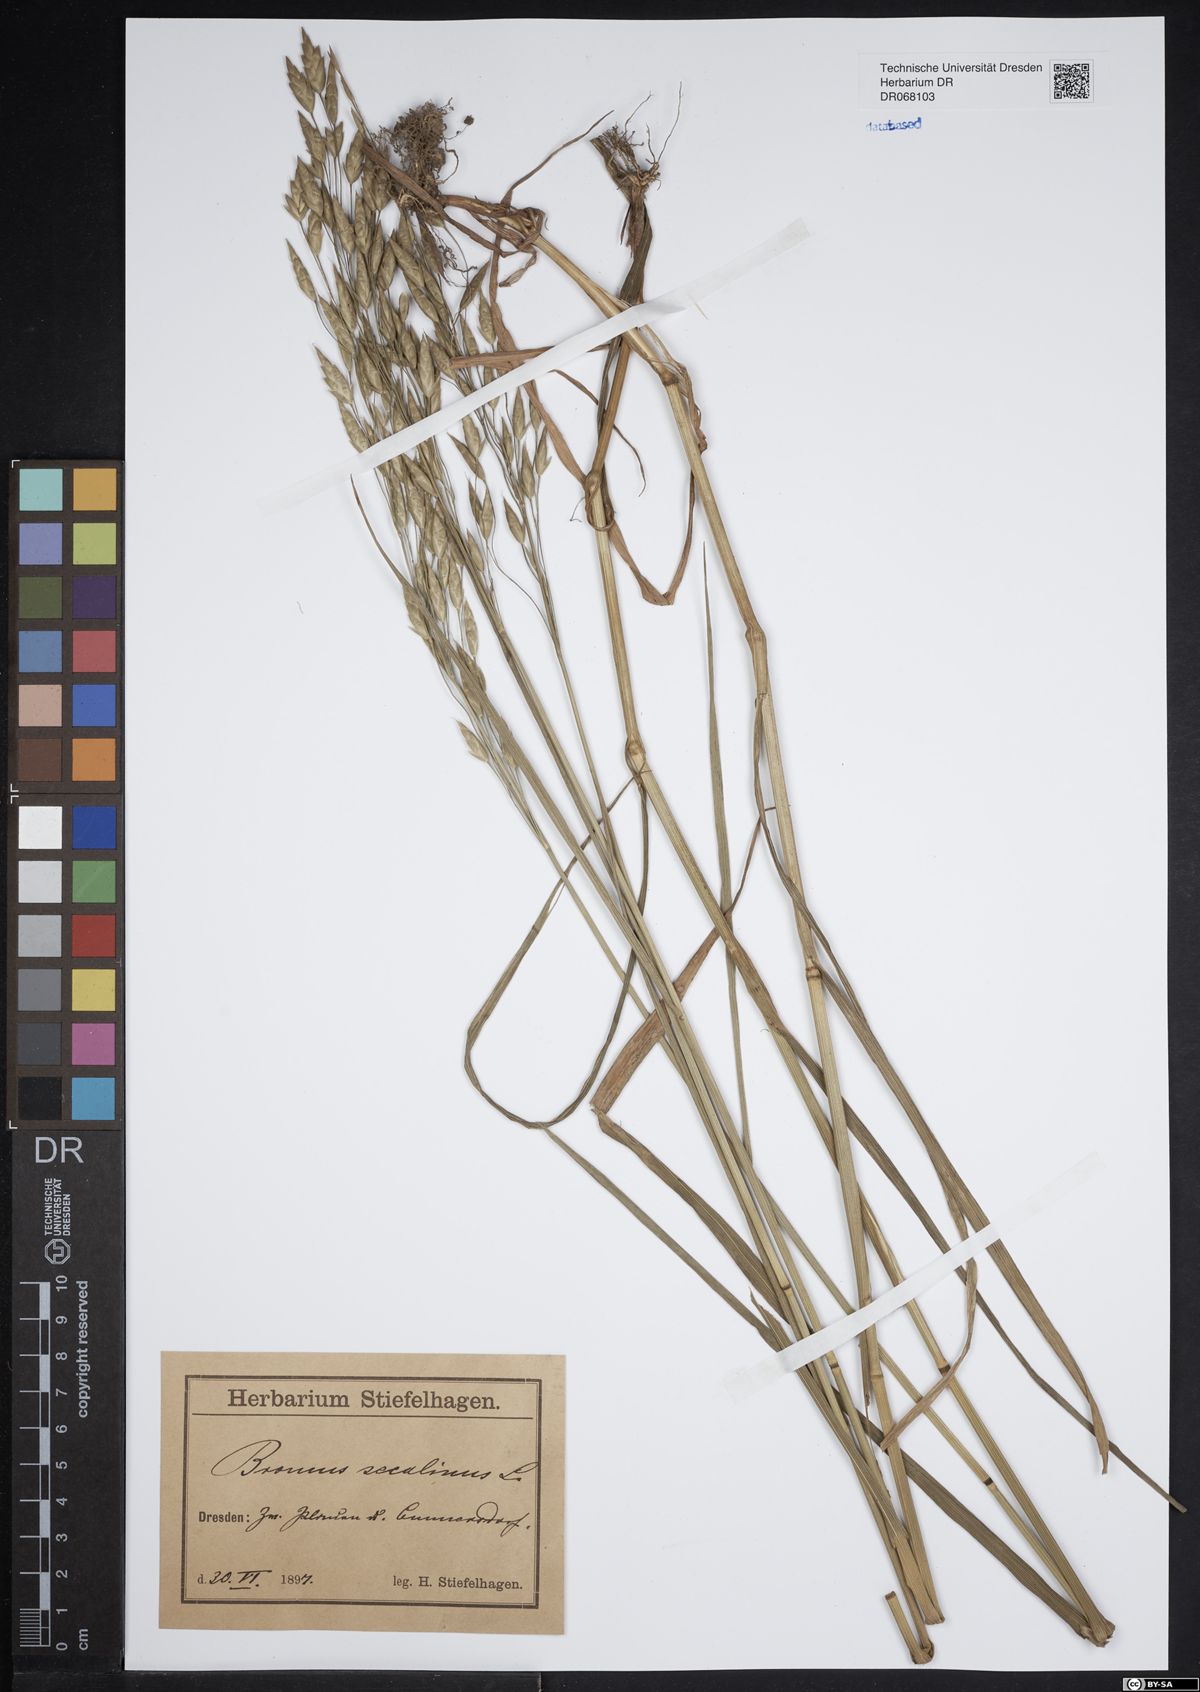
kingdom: Plantae
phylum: Tracheophyta
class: Liliopsida
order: Poales
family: Poaceae
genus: Bromus
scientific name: Bromus secalinus
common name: Rye brome
